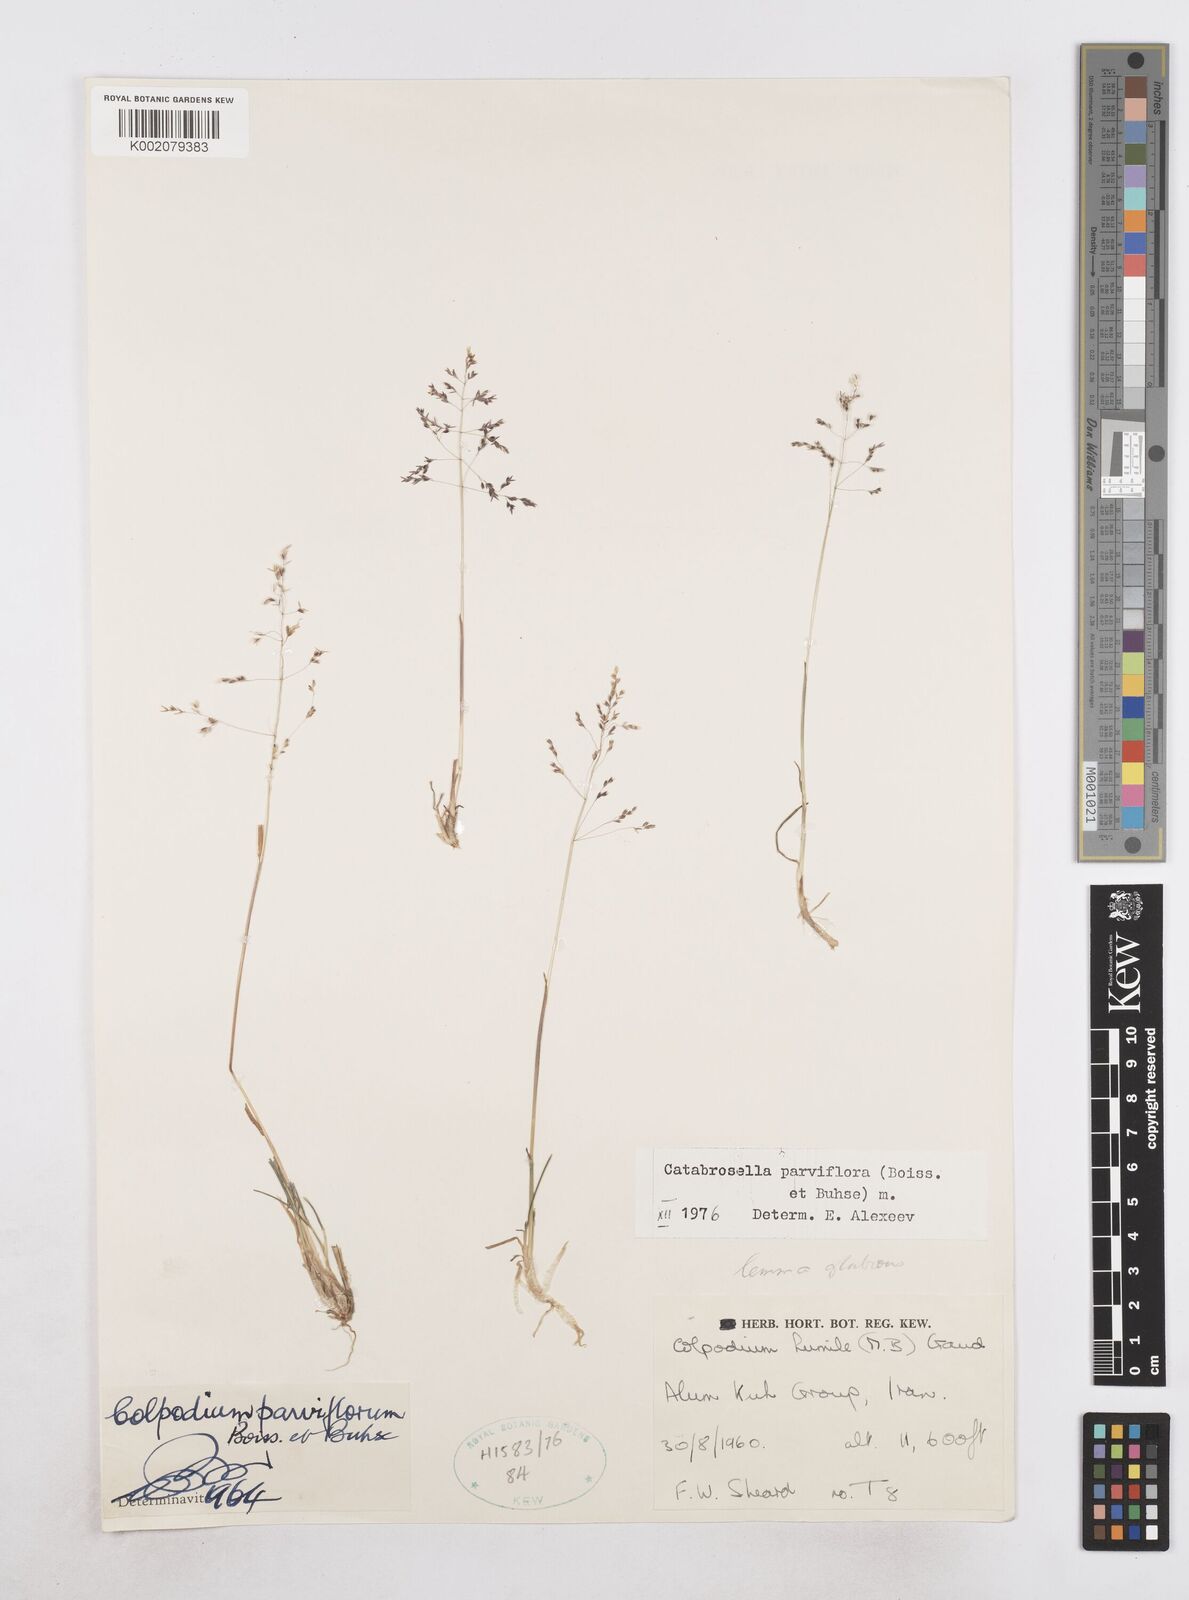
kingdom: Plantae
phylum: Tracheophyta
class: Liliopsida
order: Poales
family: Poaceae
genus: Catabrosella
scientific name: Catabrosella humilis
